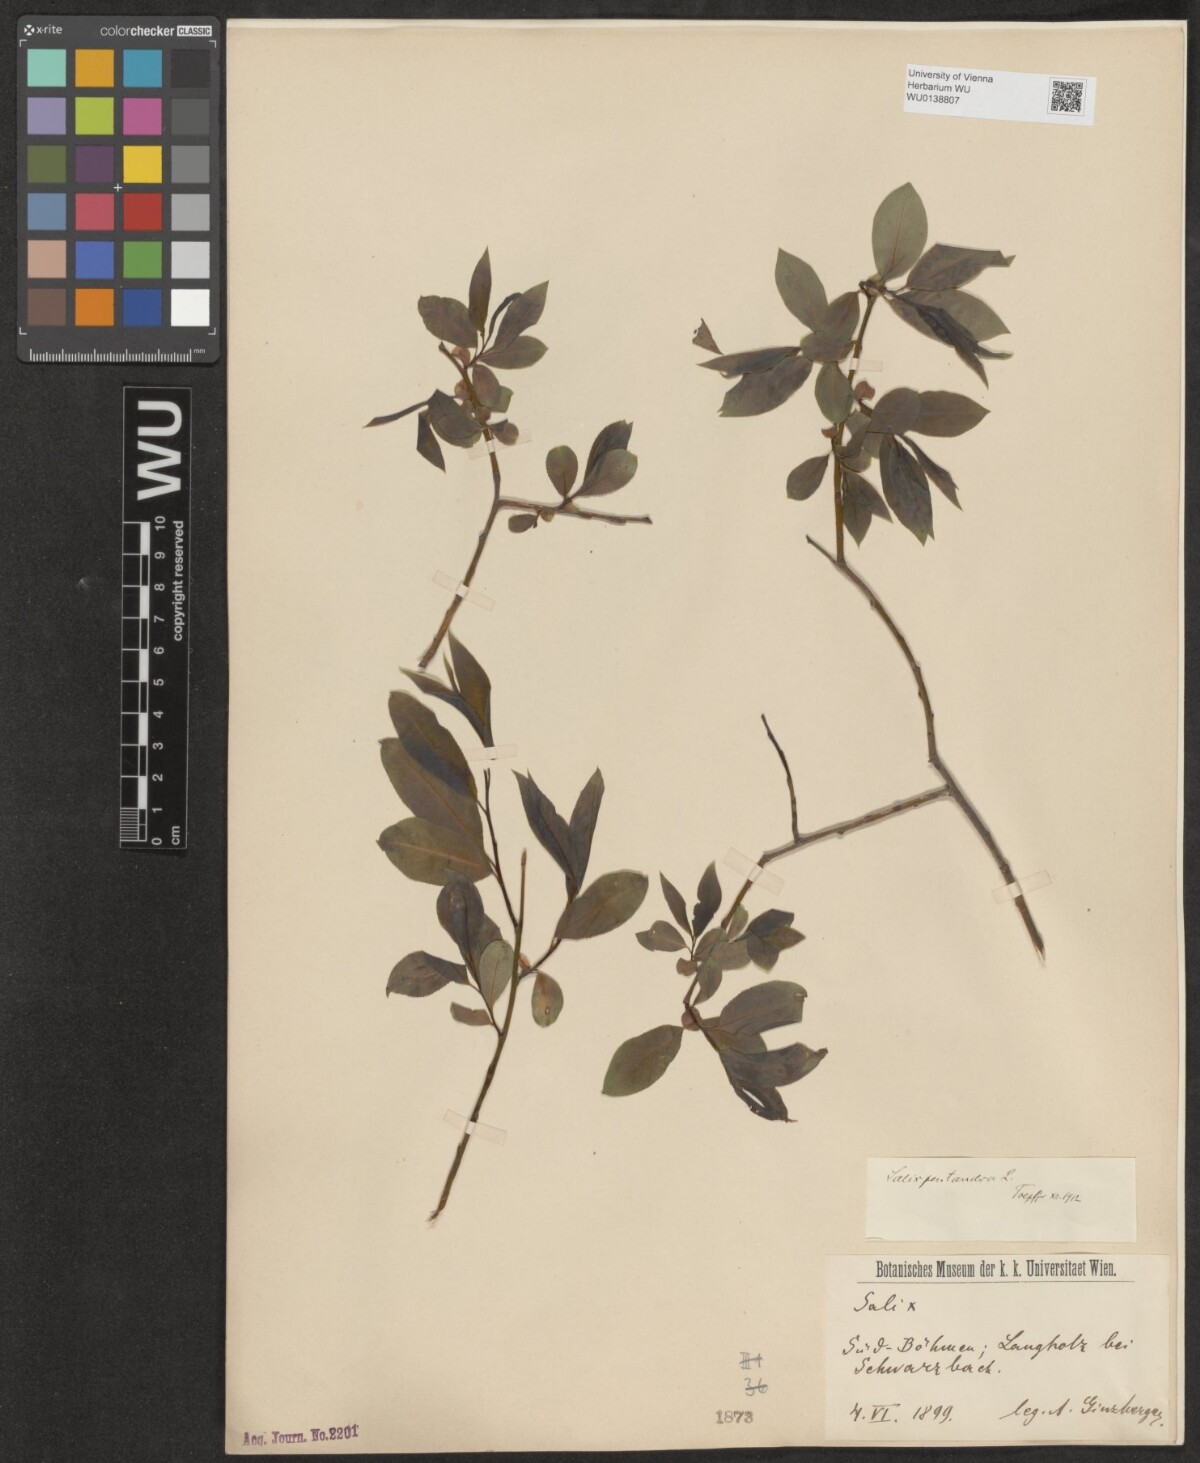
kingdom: Plantae
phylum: Tracheophyta
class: Magnoliopsida
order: Malpighiales
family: Salicaceae
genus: Salix
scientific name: Salix pentandra
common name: Bay willow
